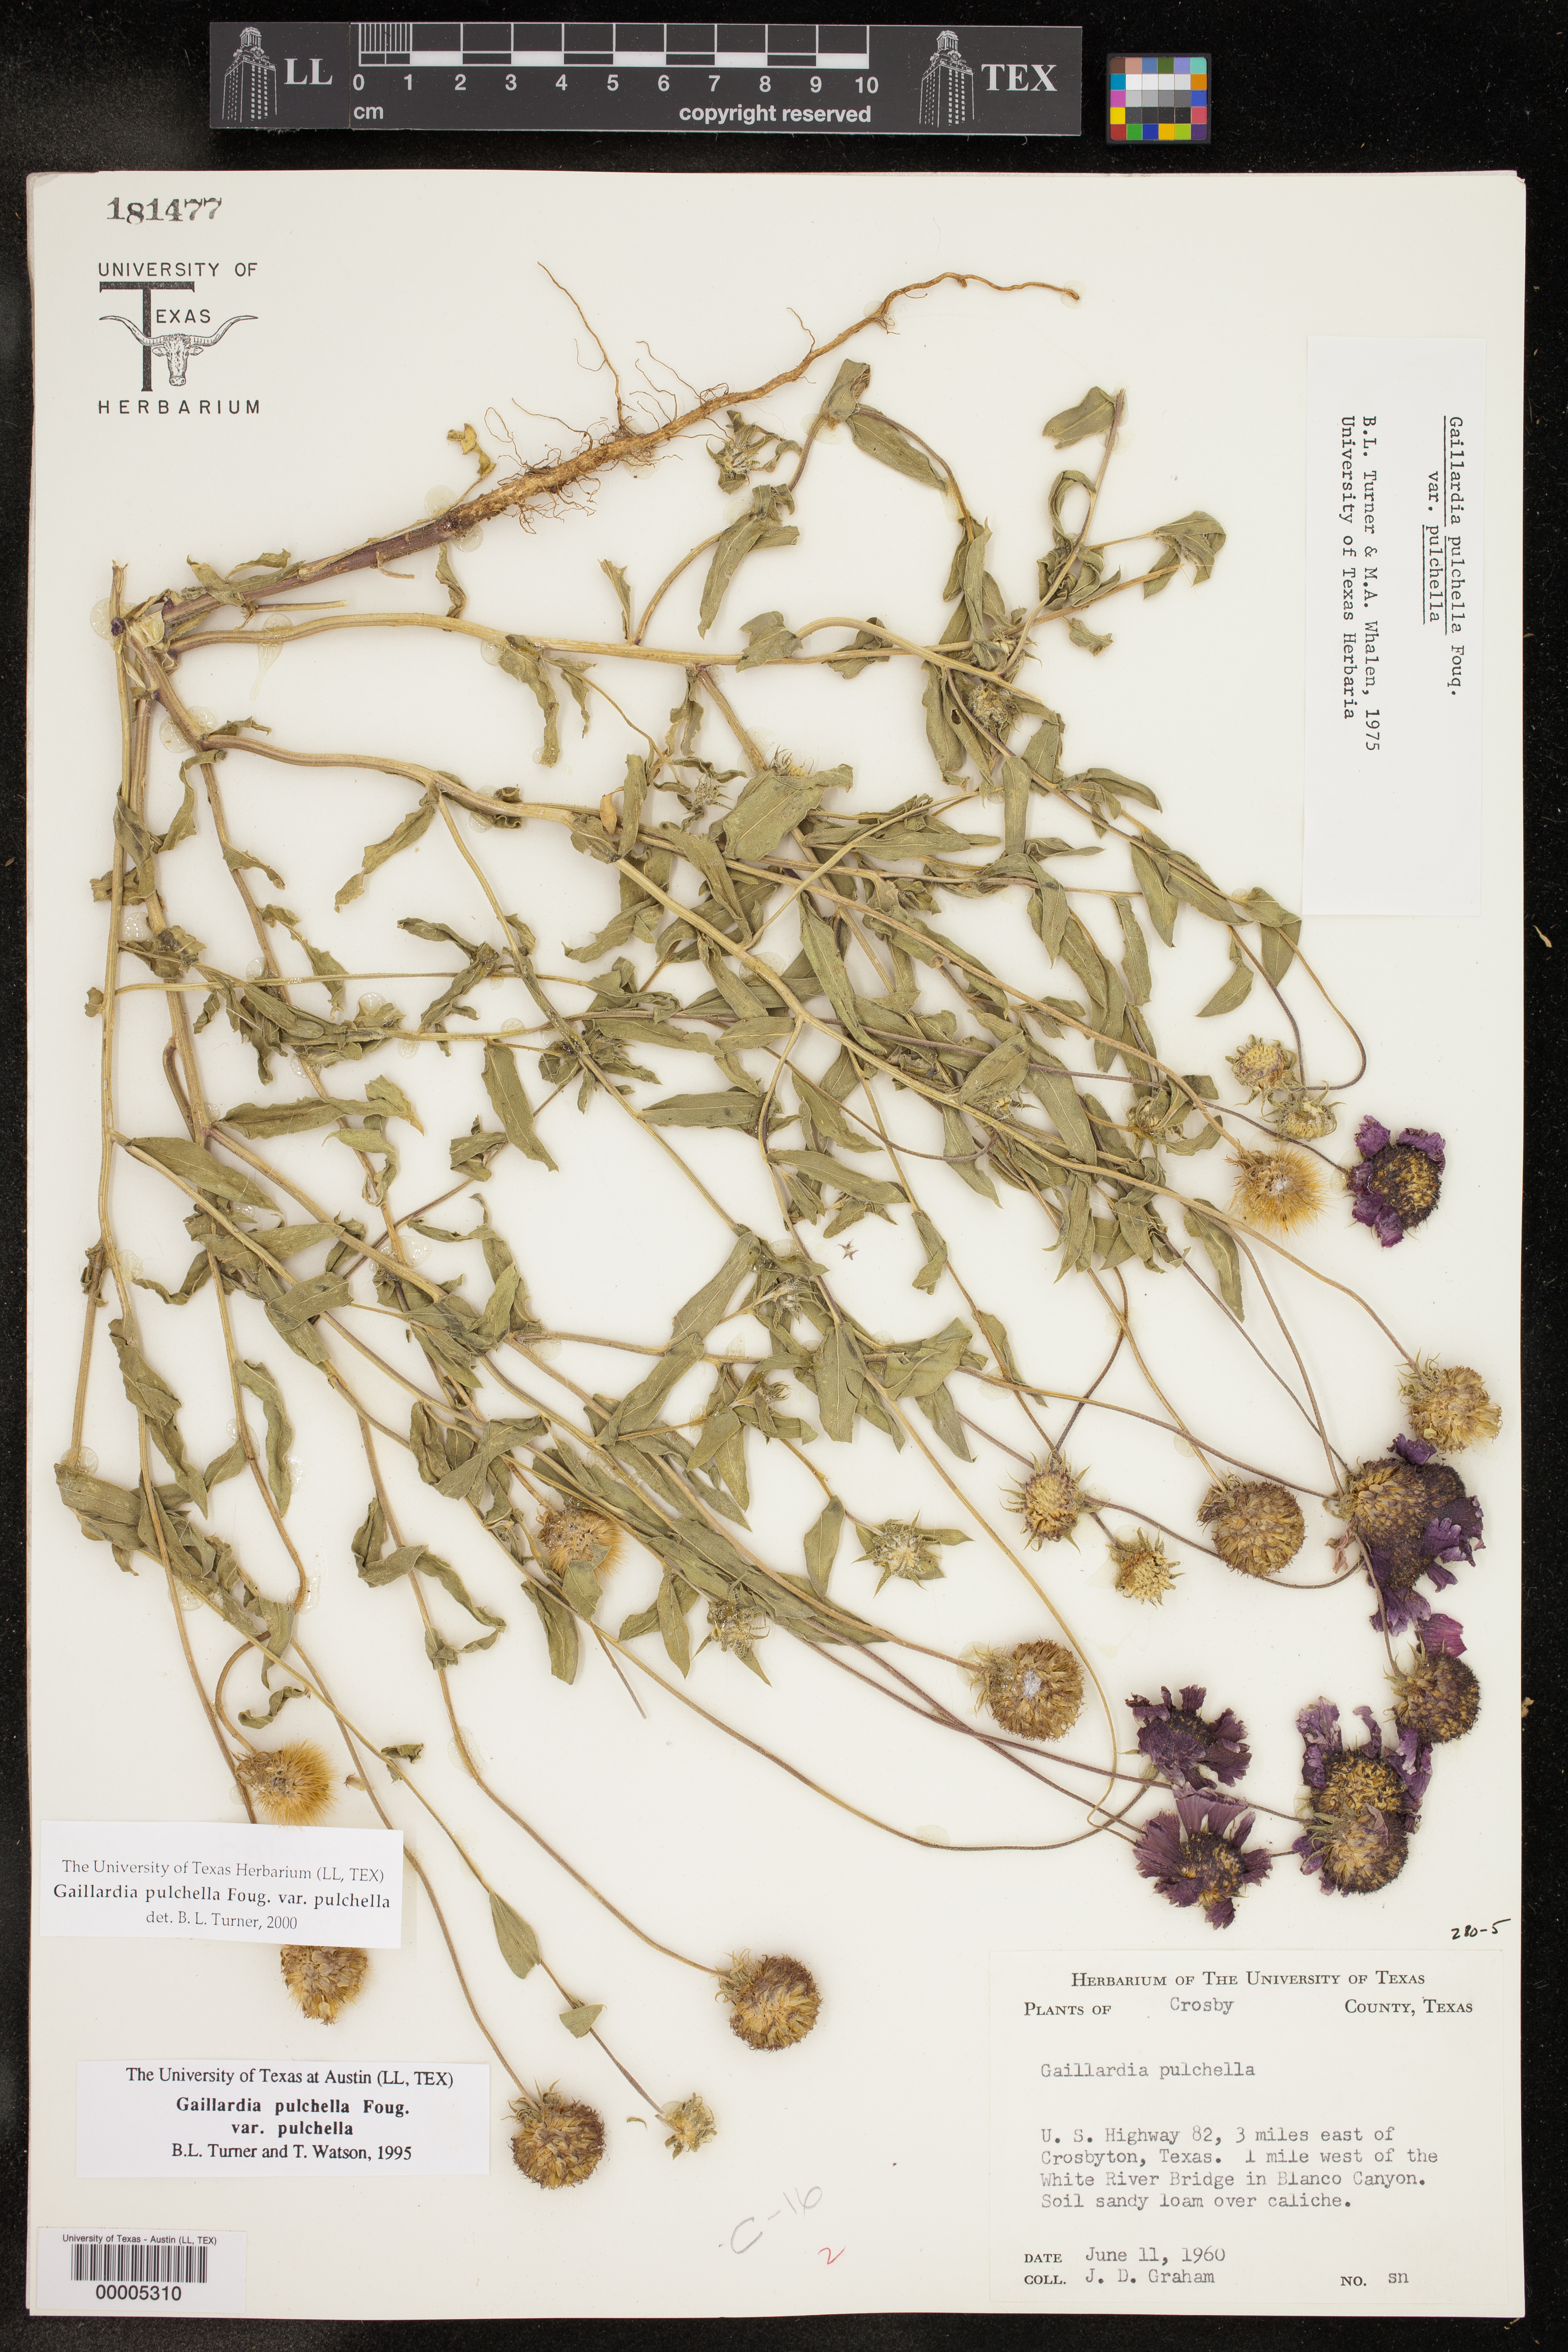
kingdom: Plantae
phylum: Tracheophyta
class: Magnoliopsida
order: Asterales
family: Asteraceae
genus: Gaillardia
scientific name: Gaillardia pulchella
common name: Firewheel
